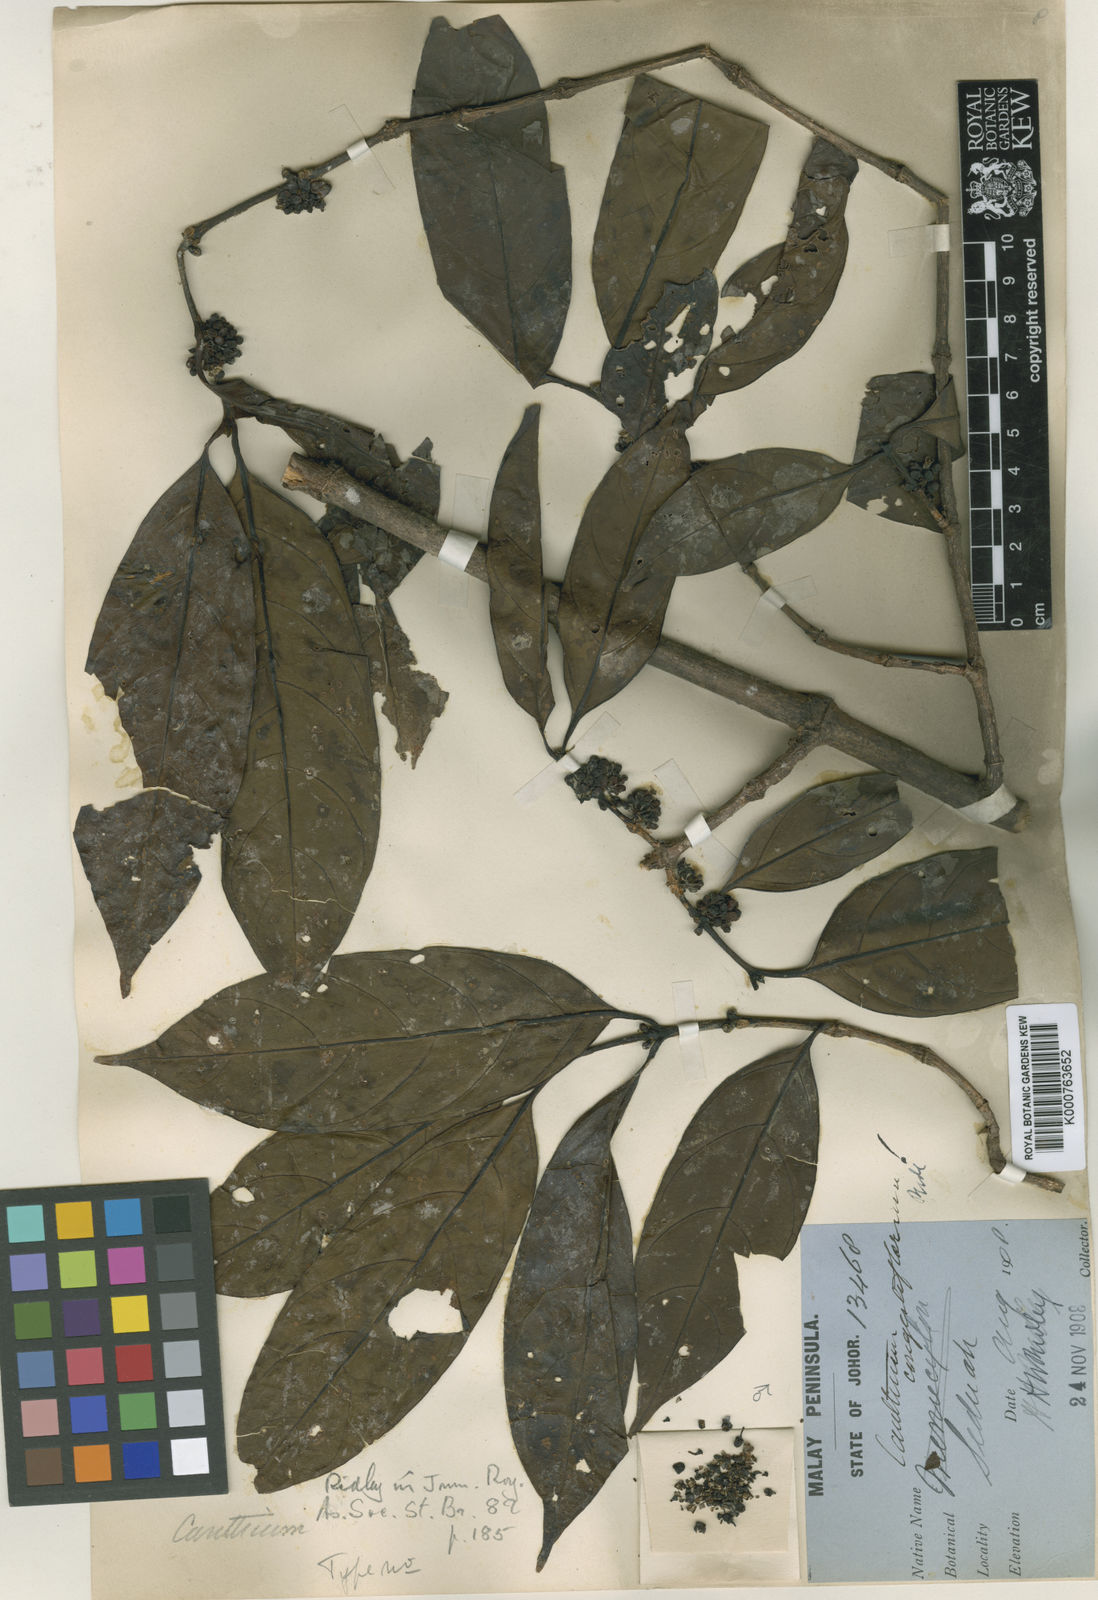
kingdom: Plantae
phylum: Tracheophyta
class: Magnoliopsida
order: Gentianales
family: Rubiaceae
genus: Canthium
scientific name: Canthium congestiflorum
